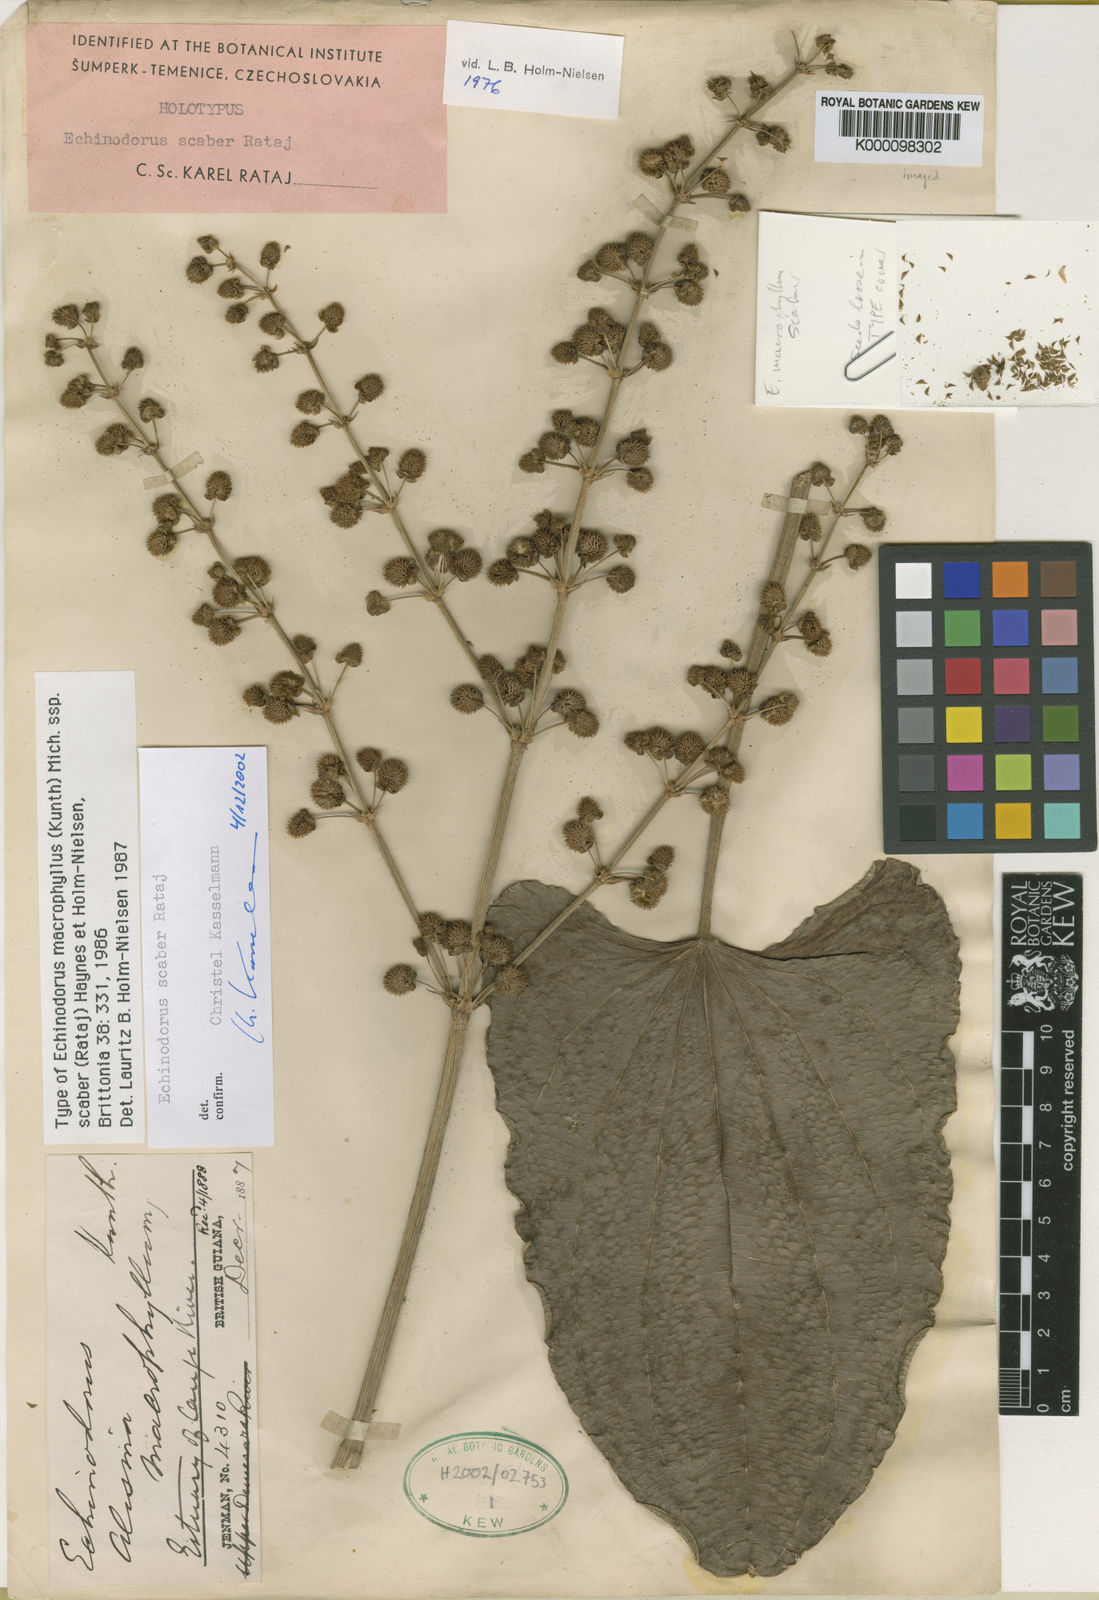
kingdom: Plantae
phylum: Tracheophyta
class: Liliopsida
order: Alismatales
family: Alismataceae
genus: Aquarius
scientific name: Aquarius scaber
